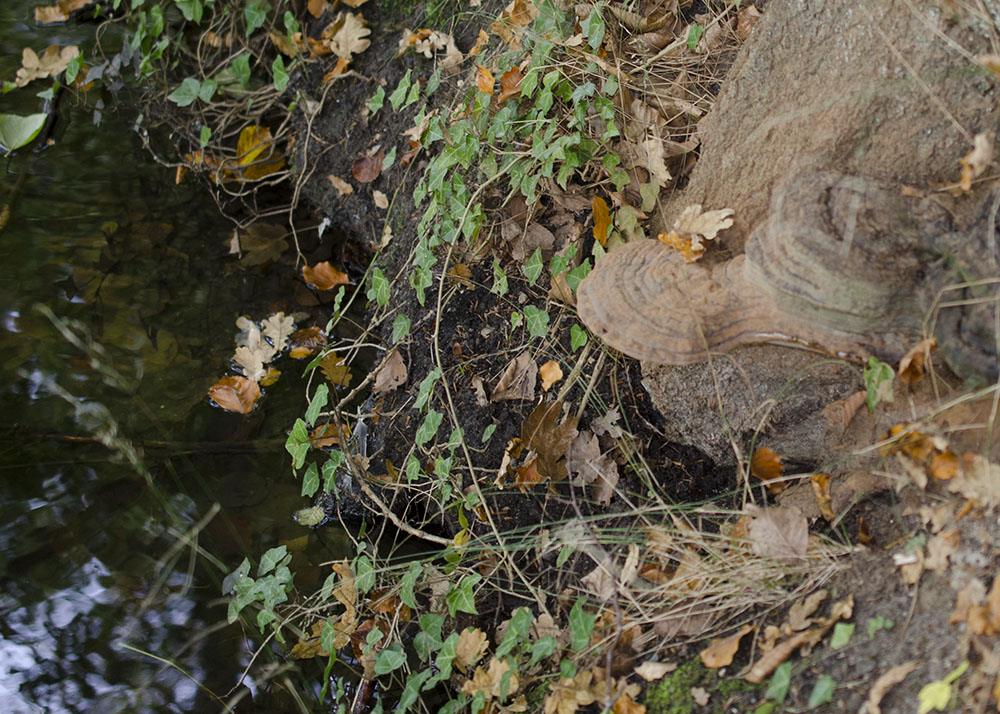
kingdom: Fungi
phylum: Basidiomycota
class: Agaricomycetes
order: Polyporales
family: Polyporaceae
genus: Ganoderma
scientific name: Ganoderma pfeifferi
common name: kobberrød lakporesvamp
